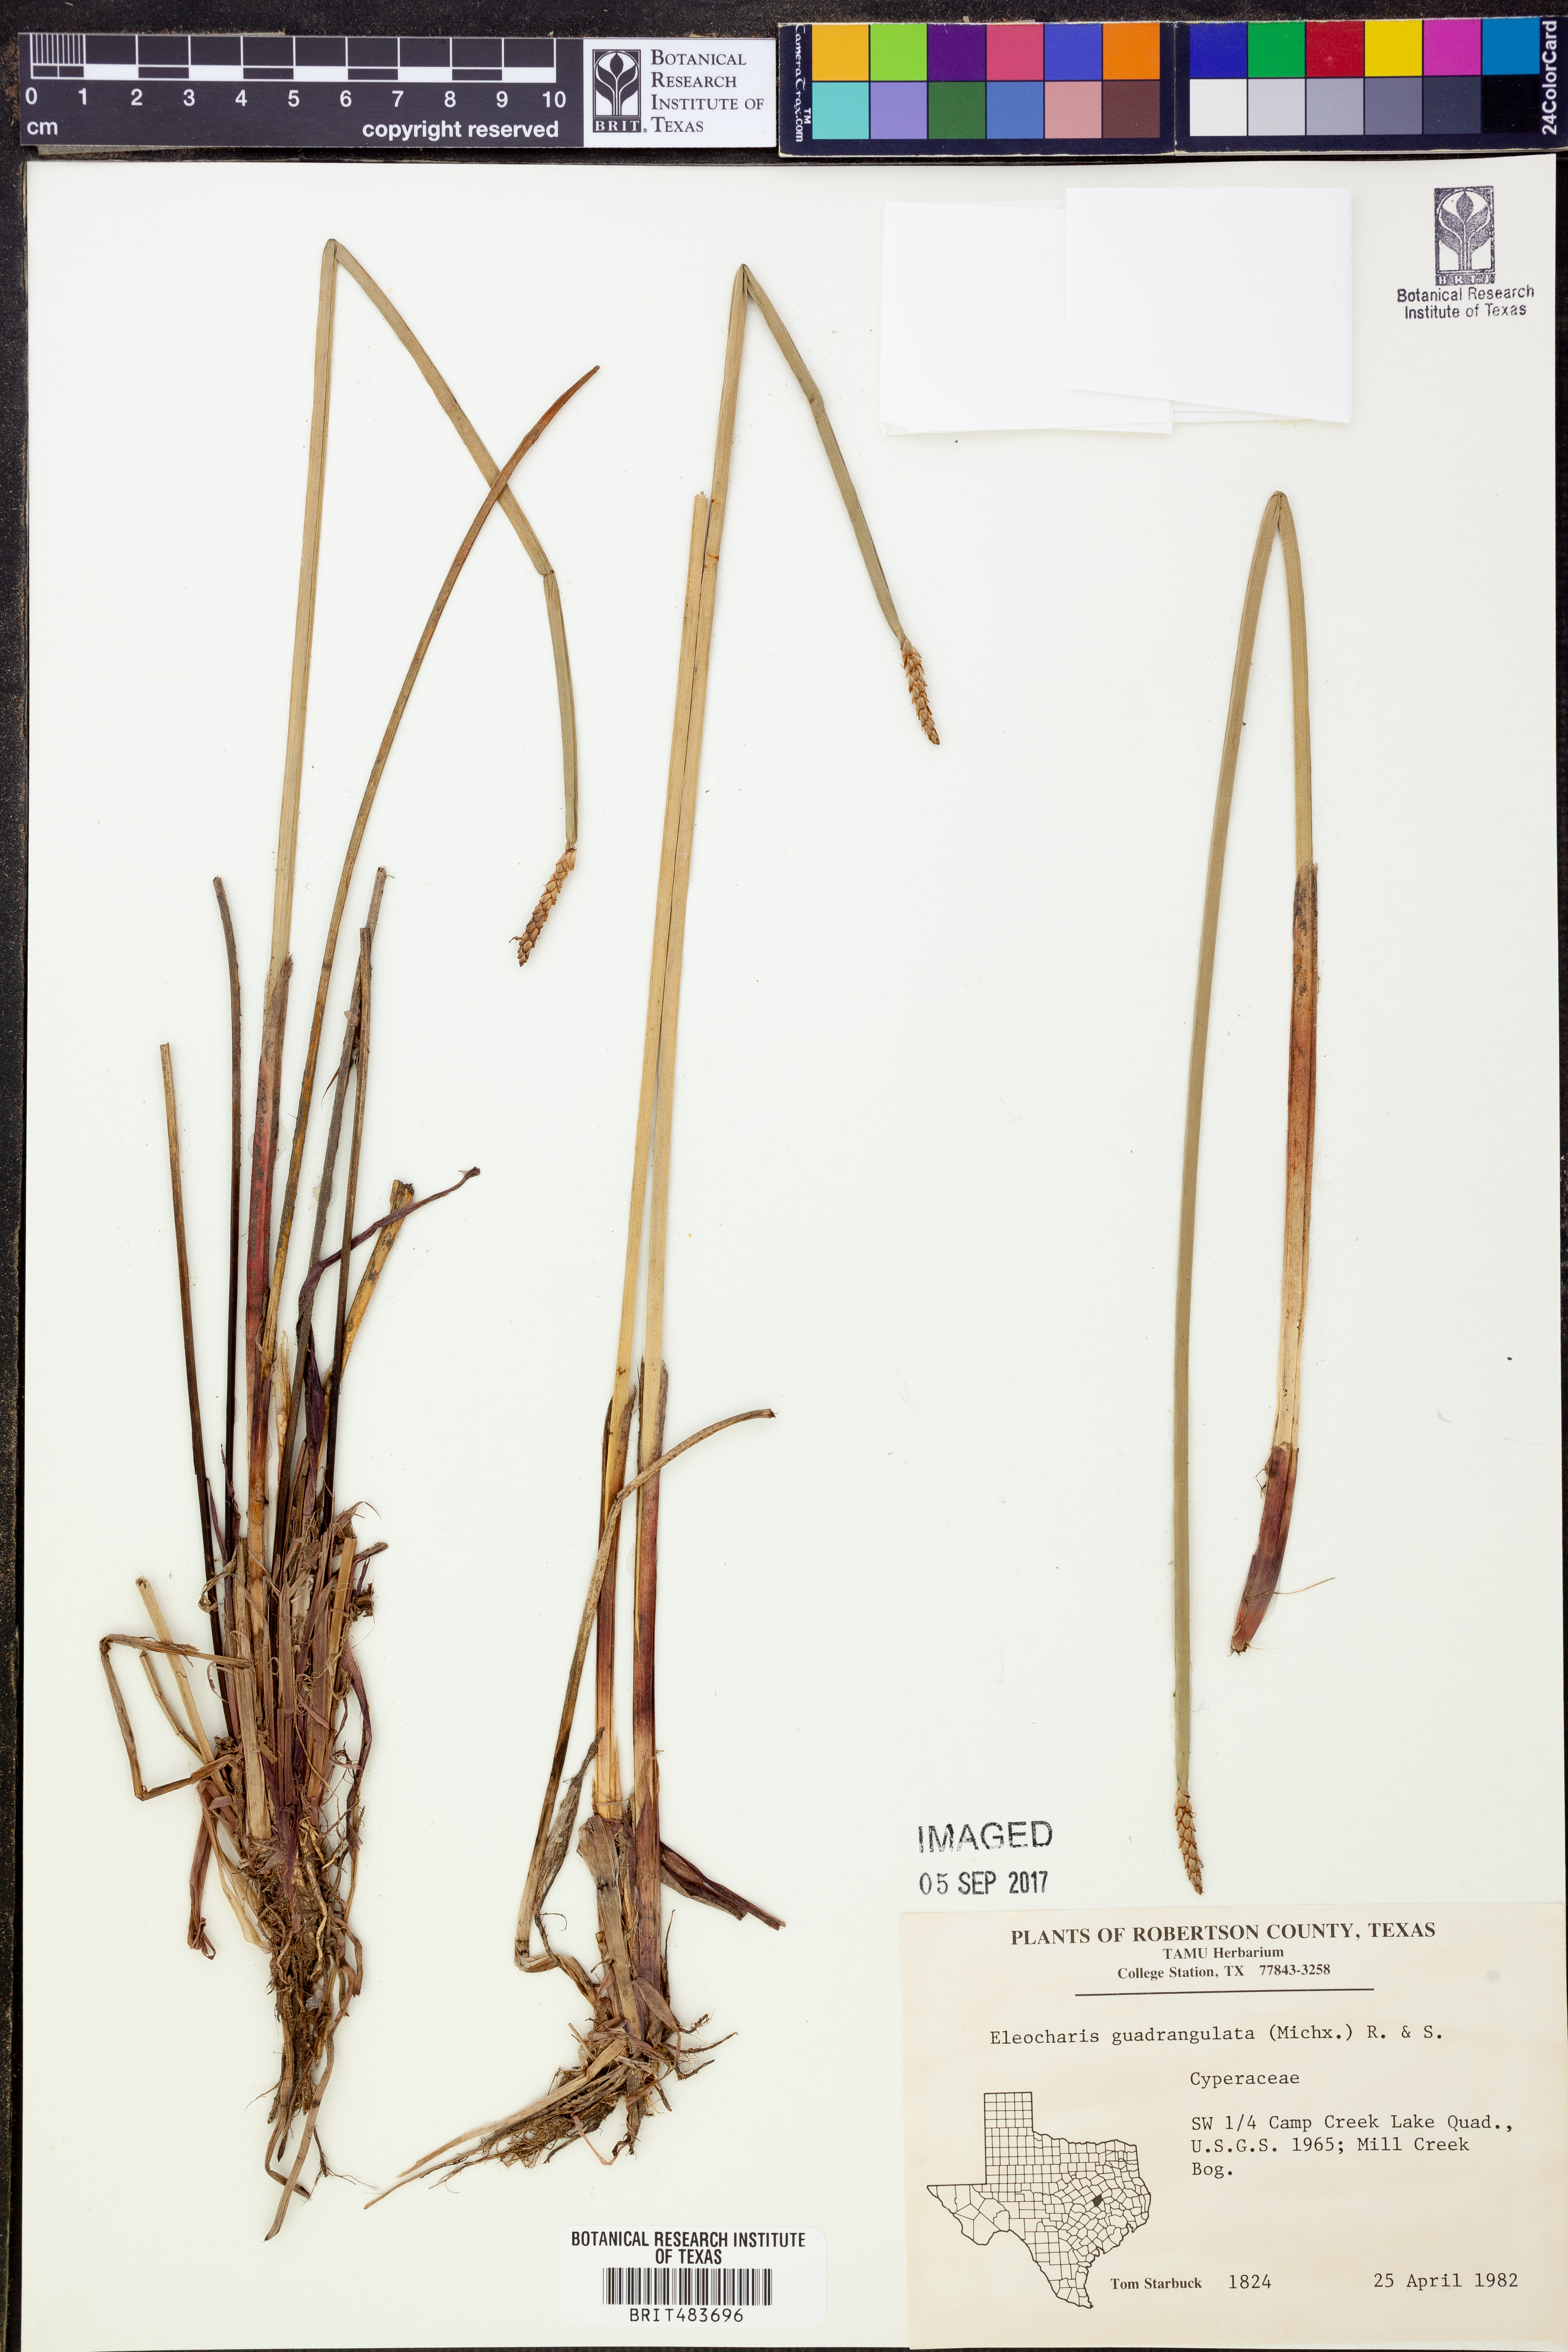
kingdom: Plantae
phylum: Tracheophyta
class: Liliopsida
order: Poales
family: Cyperaceae
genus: Eleocharis
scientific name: Eleocharis quadrangulata
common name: Square-stem spike-rush
